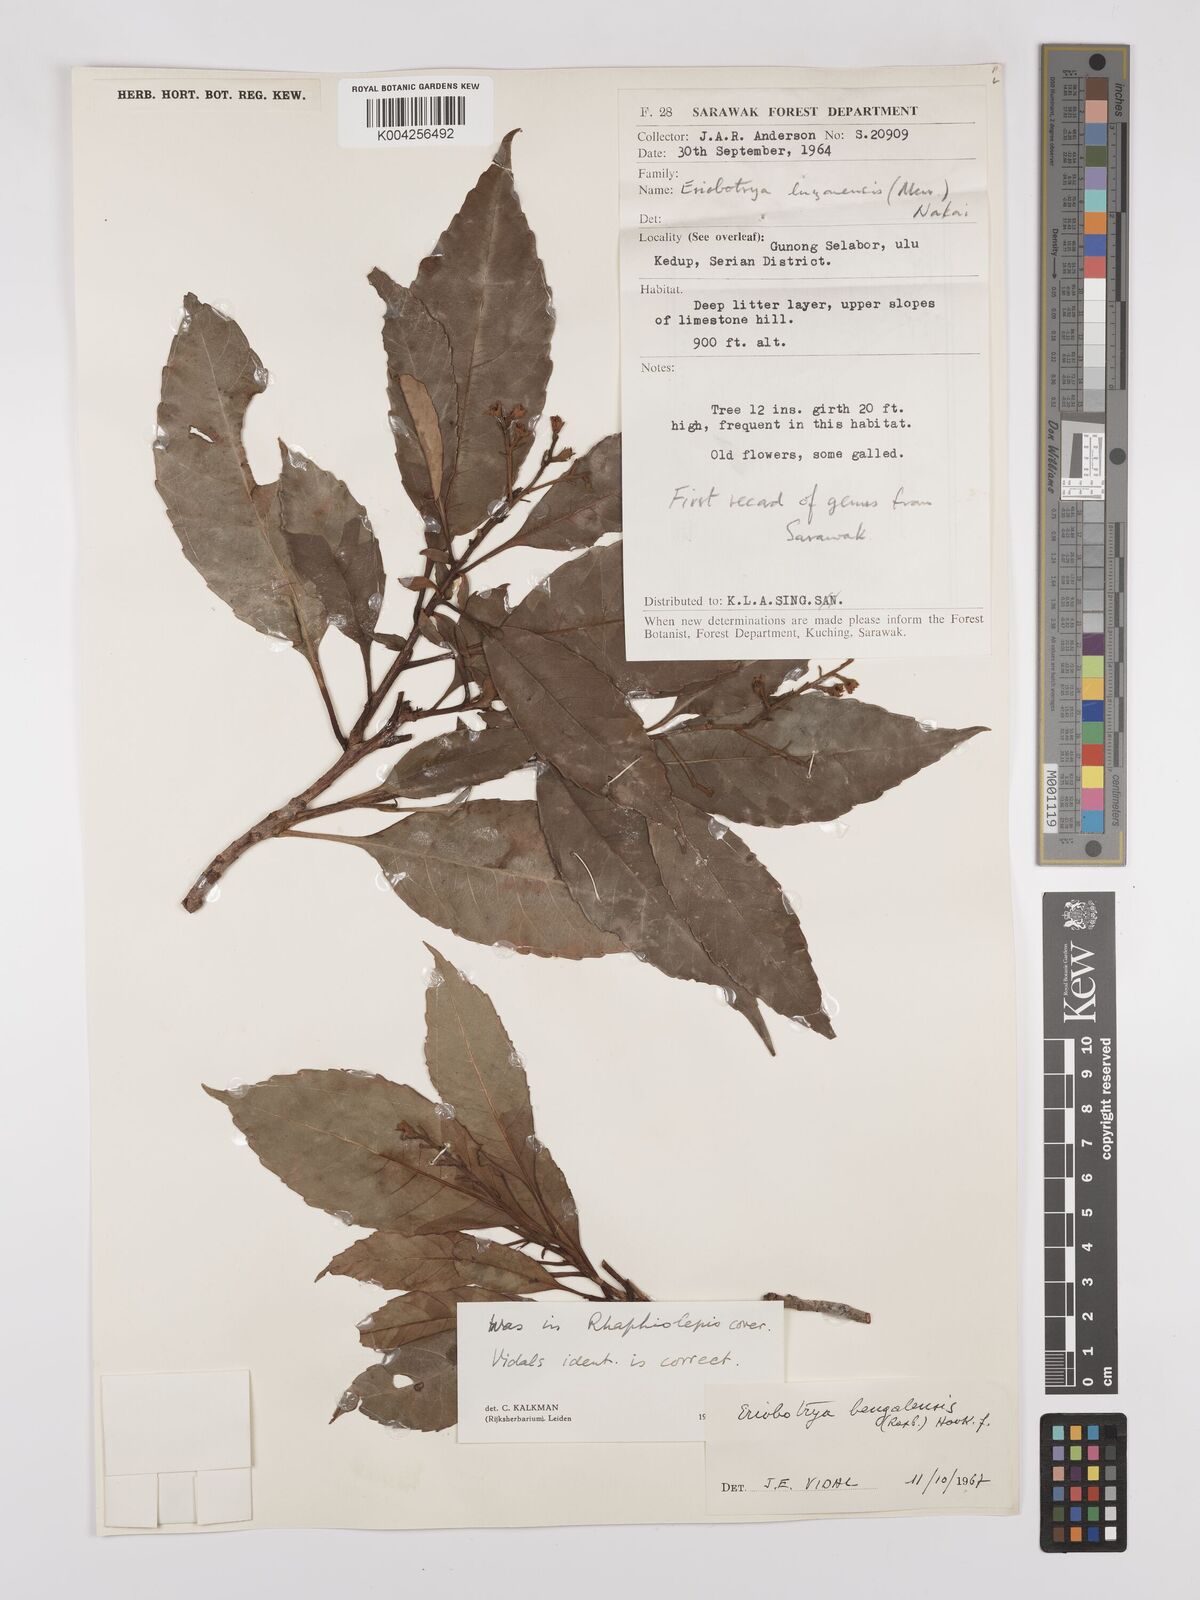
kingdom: Plantae
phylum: Tracheophyta
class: Magnoliopsida
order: Rosales
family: Rosaceae
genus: Rhaphiolepis
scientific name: Rhaphiolepis bengalensis
